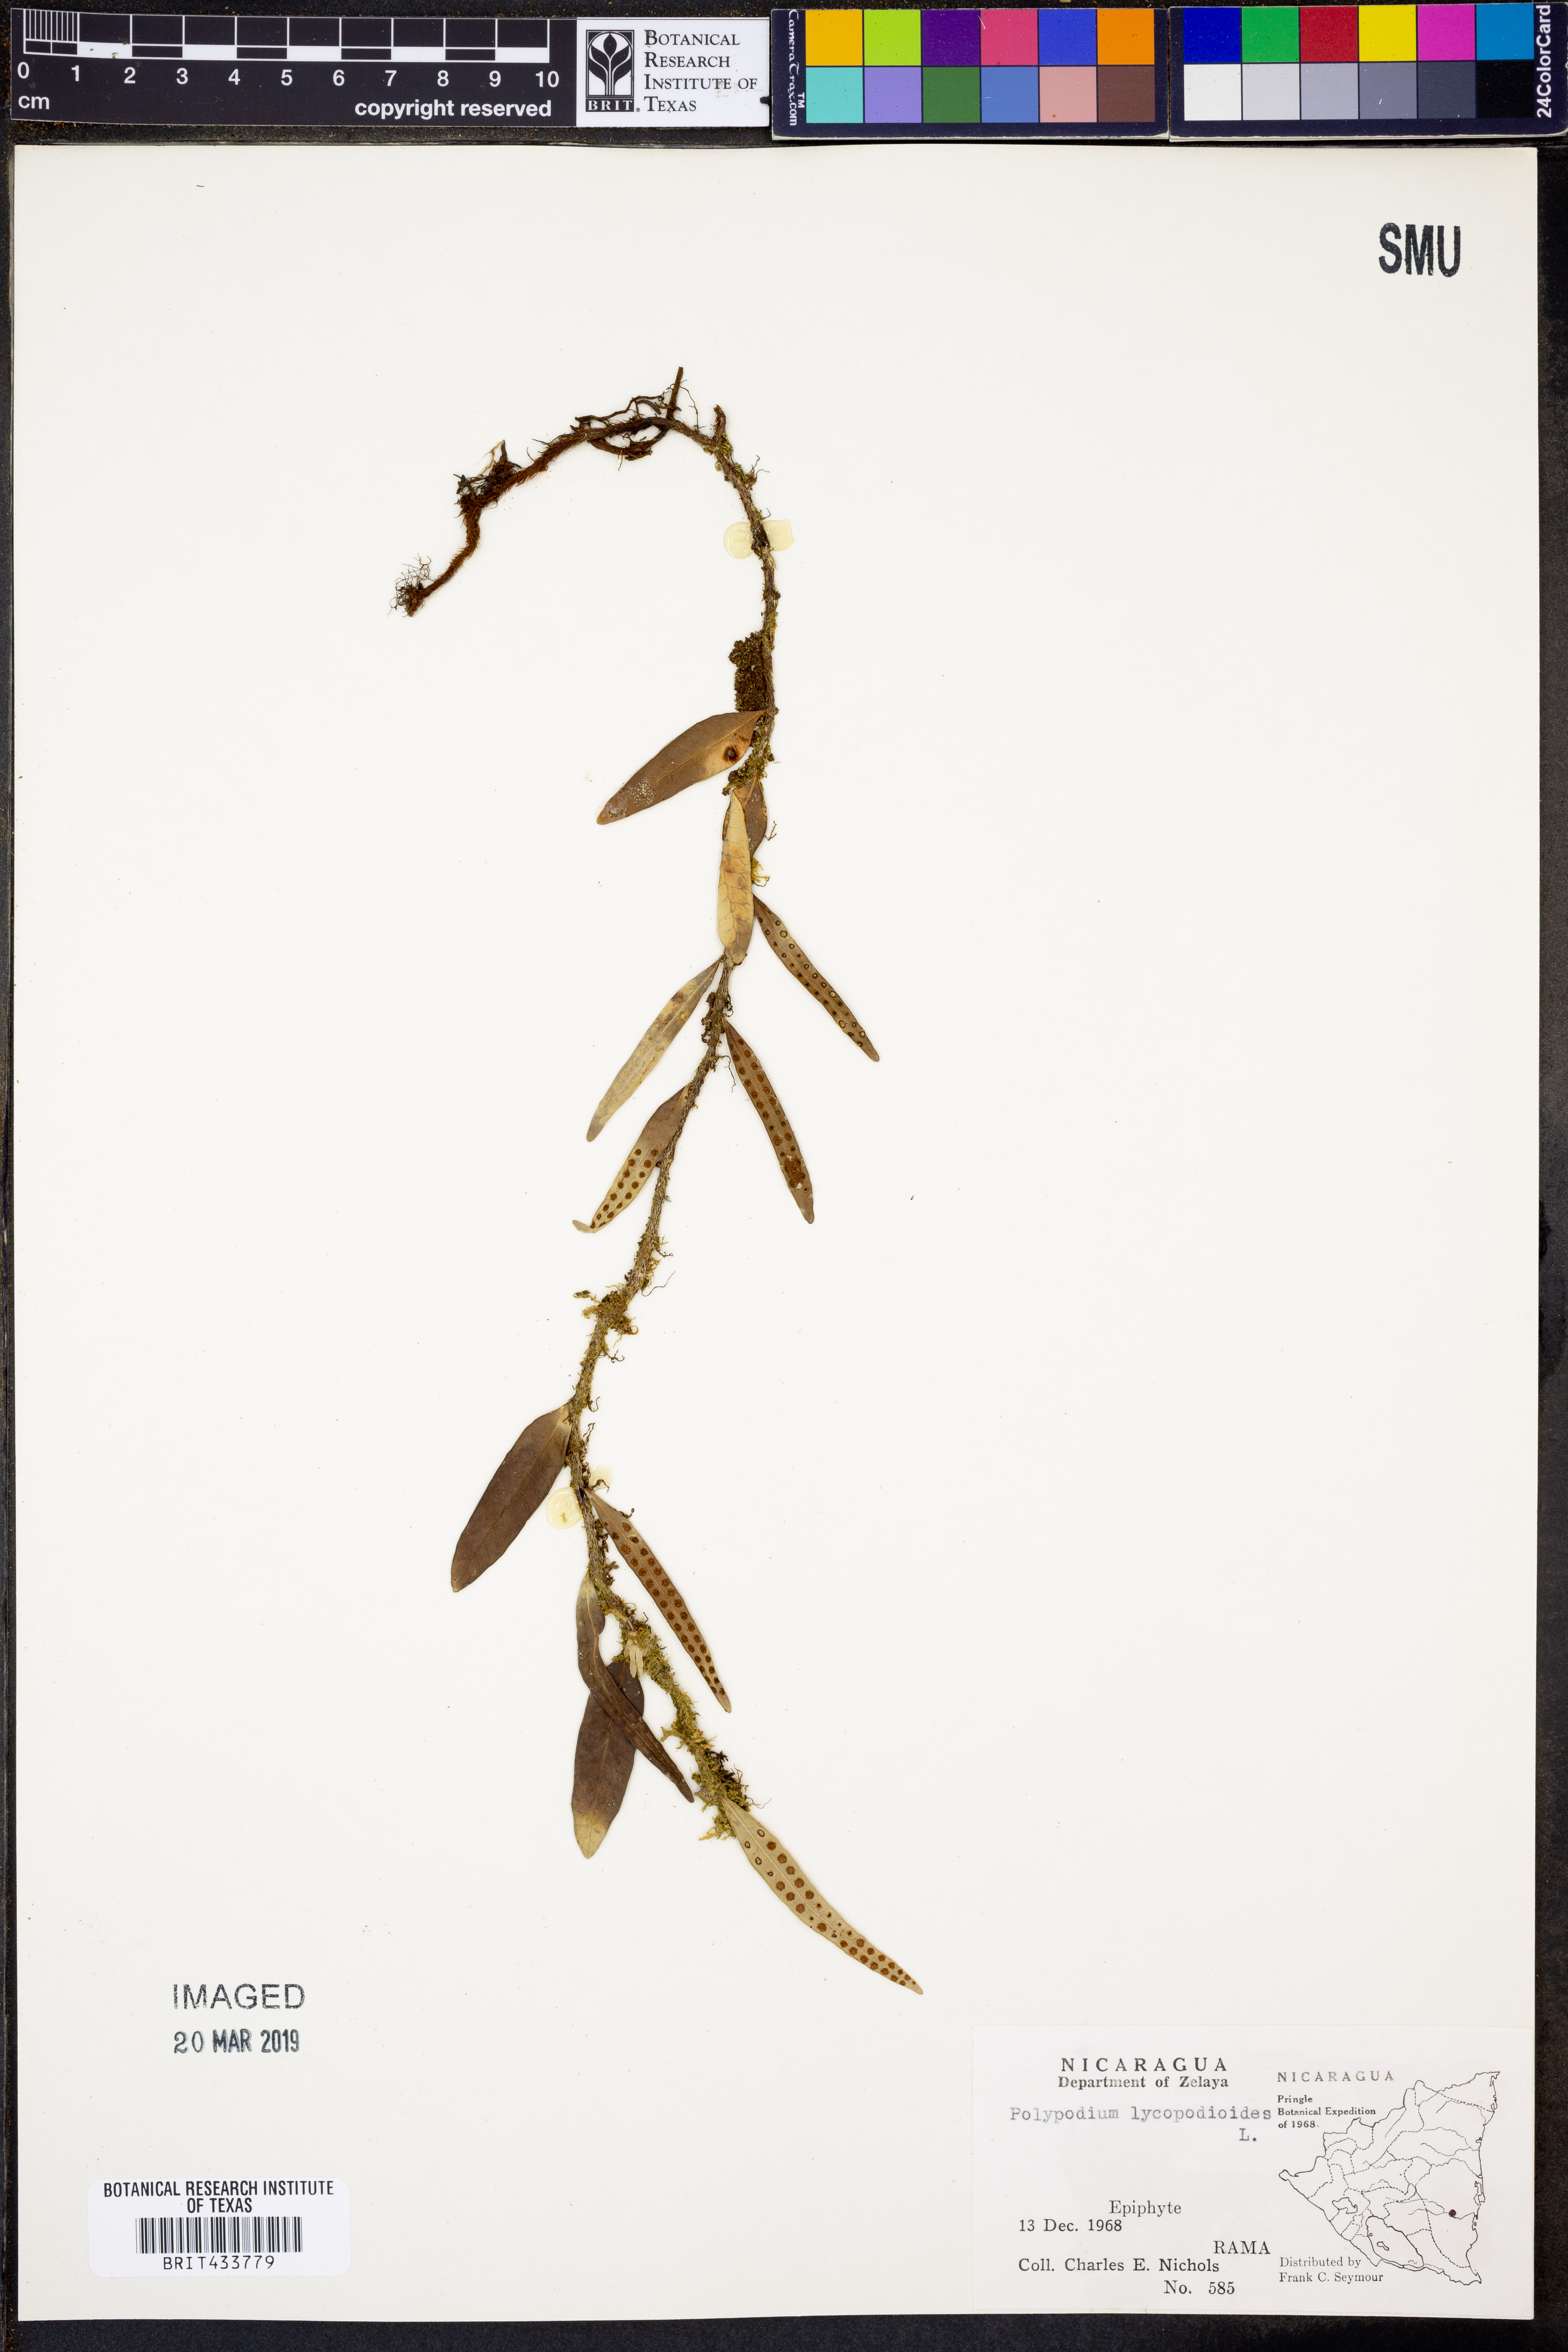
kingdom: Plantae
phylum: Tracheophyta
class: Polypodiopsida
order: Polypodiales
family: Polypodiaceae
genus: Microgramma
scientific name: Microgramma lycopodioides
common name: Bastard catclaw
